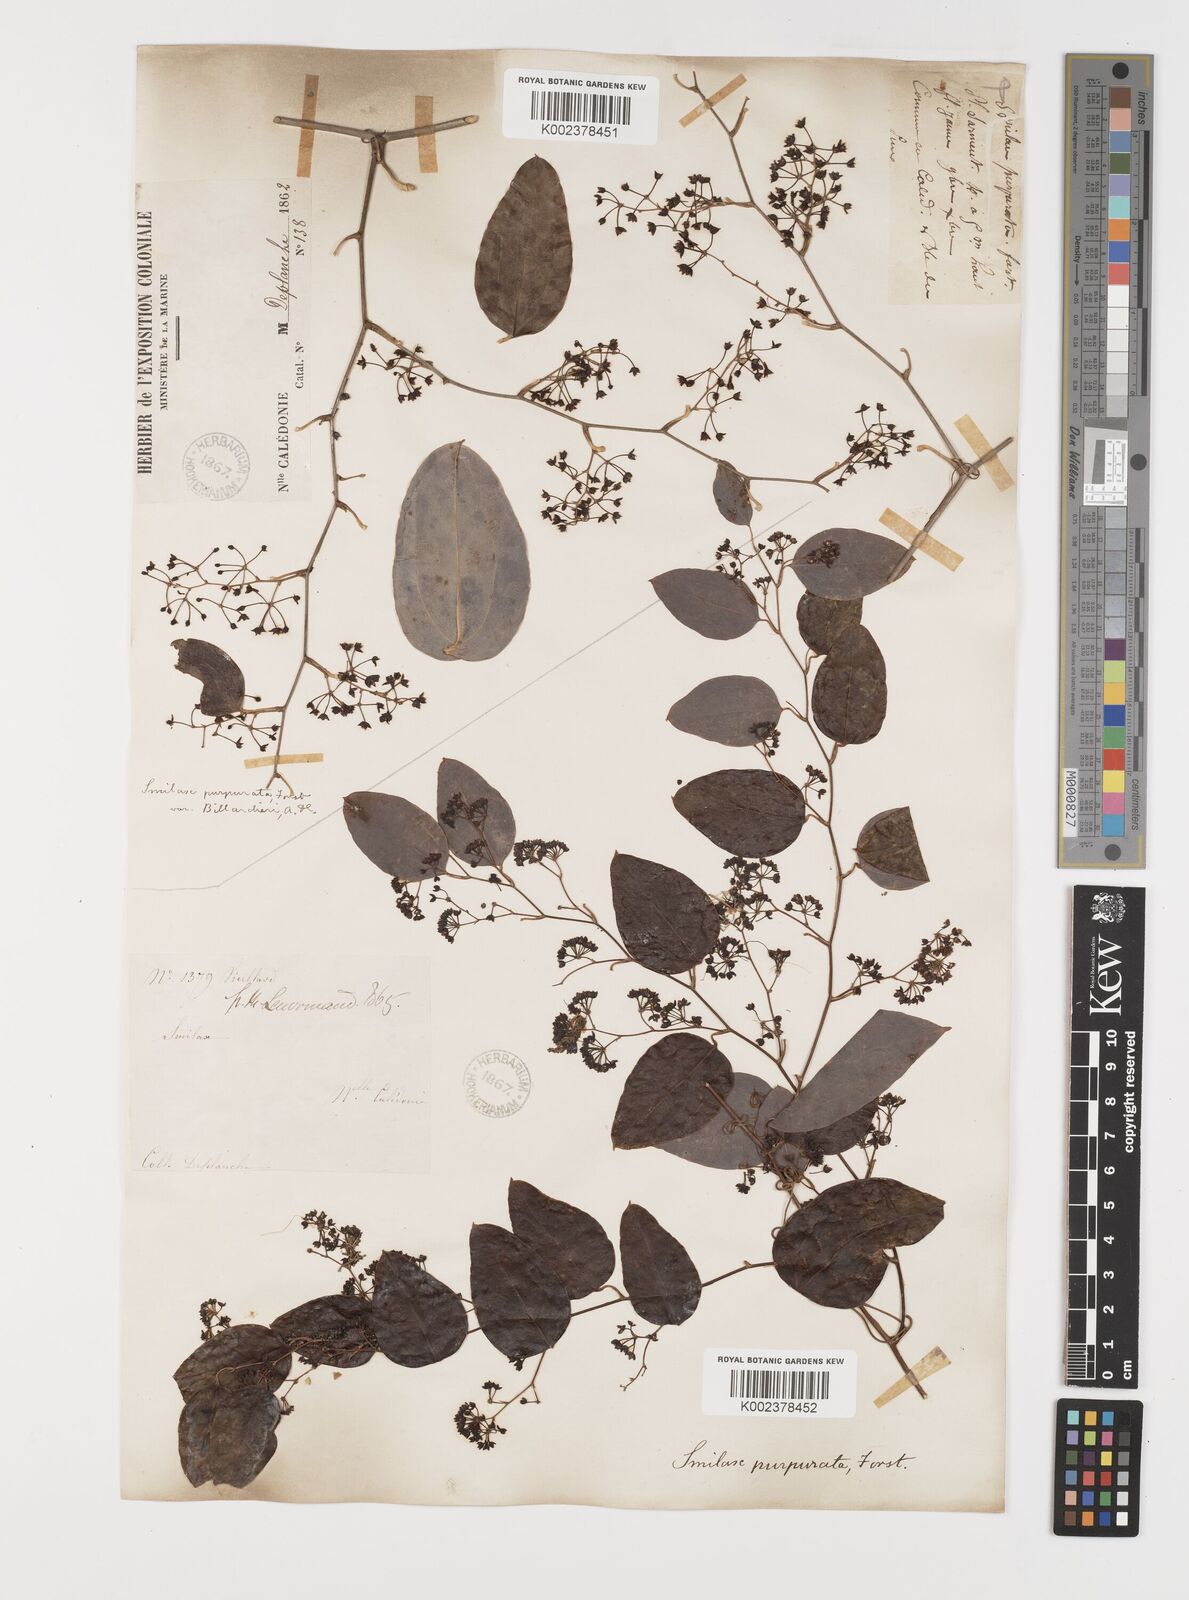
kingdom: Plantae
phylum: Tracheophyta
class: Liliopsida
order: Liliales
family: Smilacaceae
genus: Smilax
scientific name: Smilax purpurata
